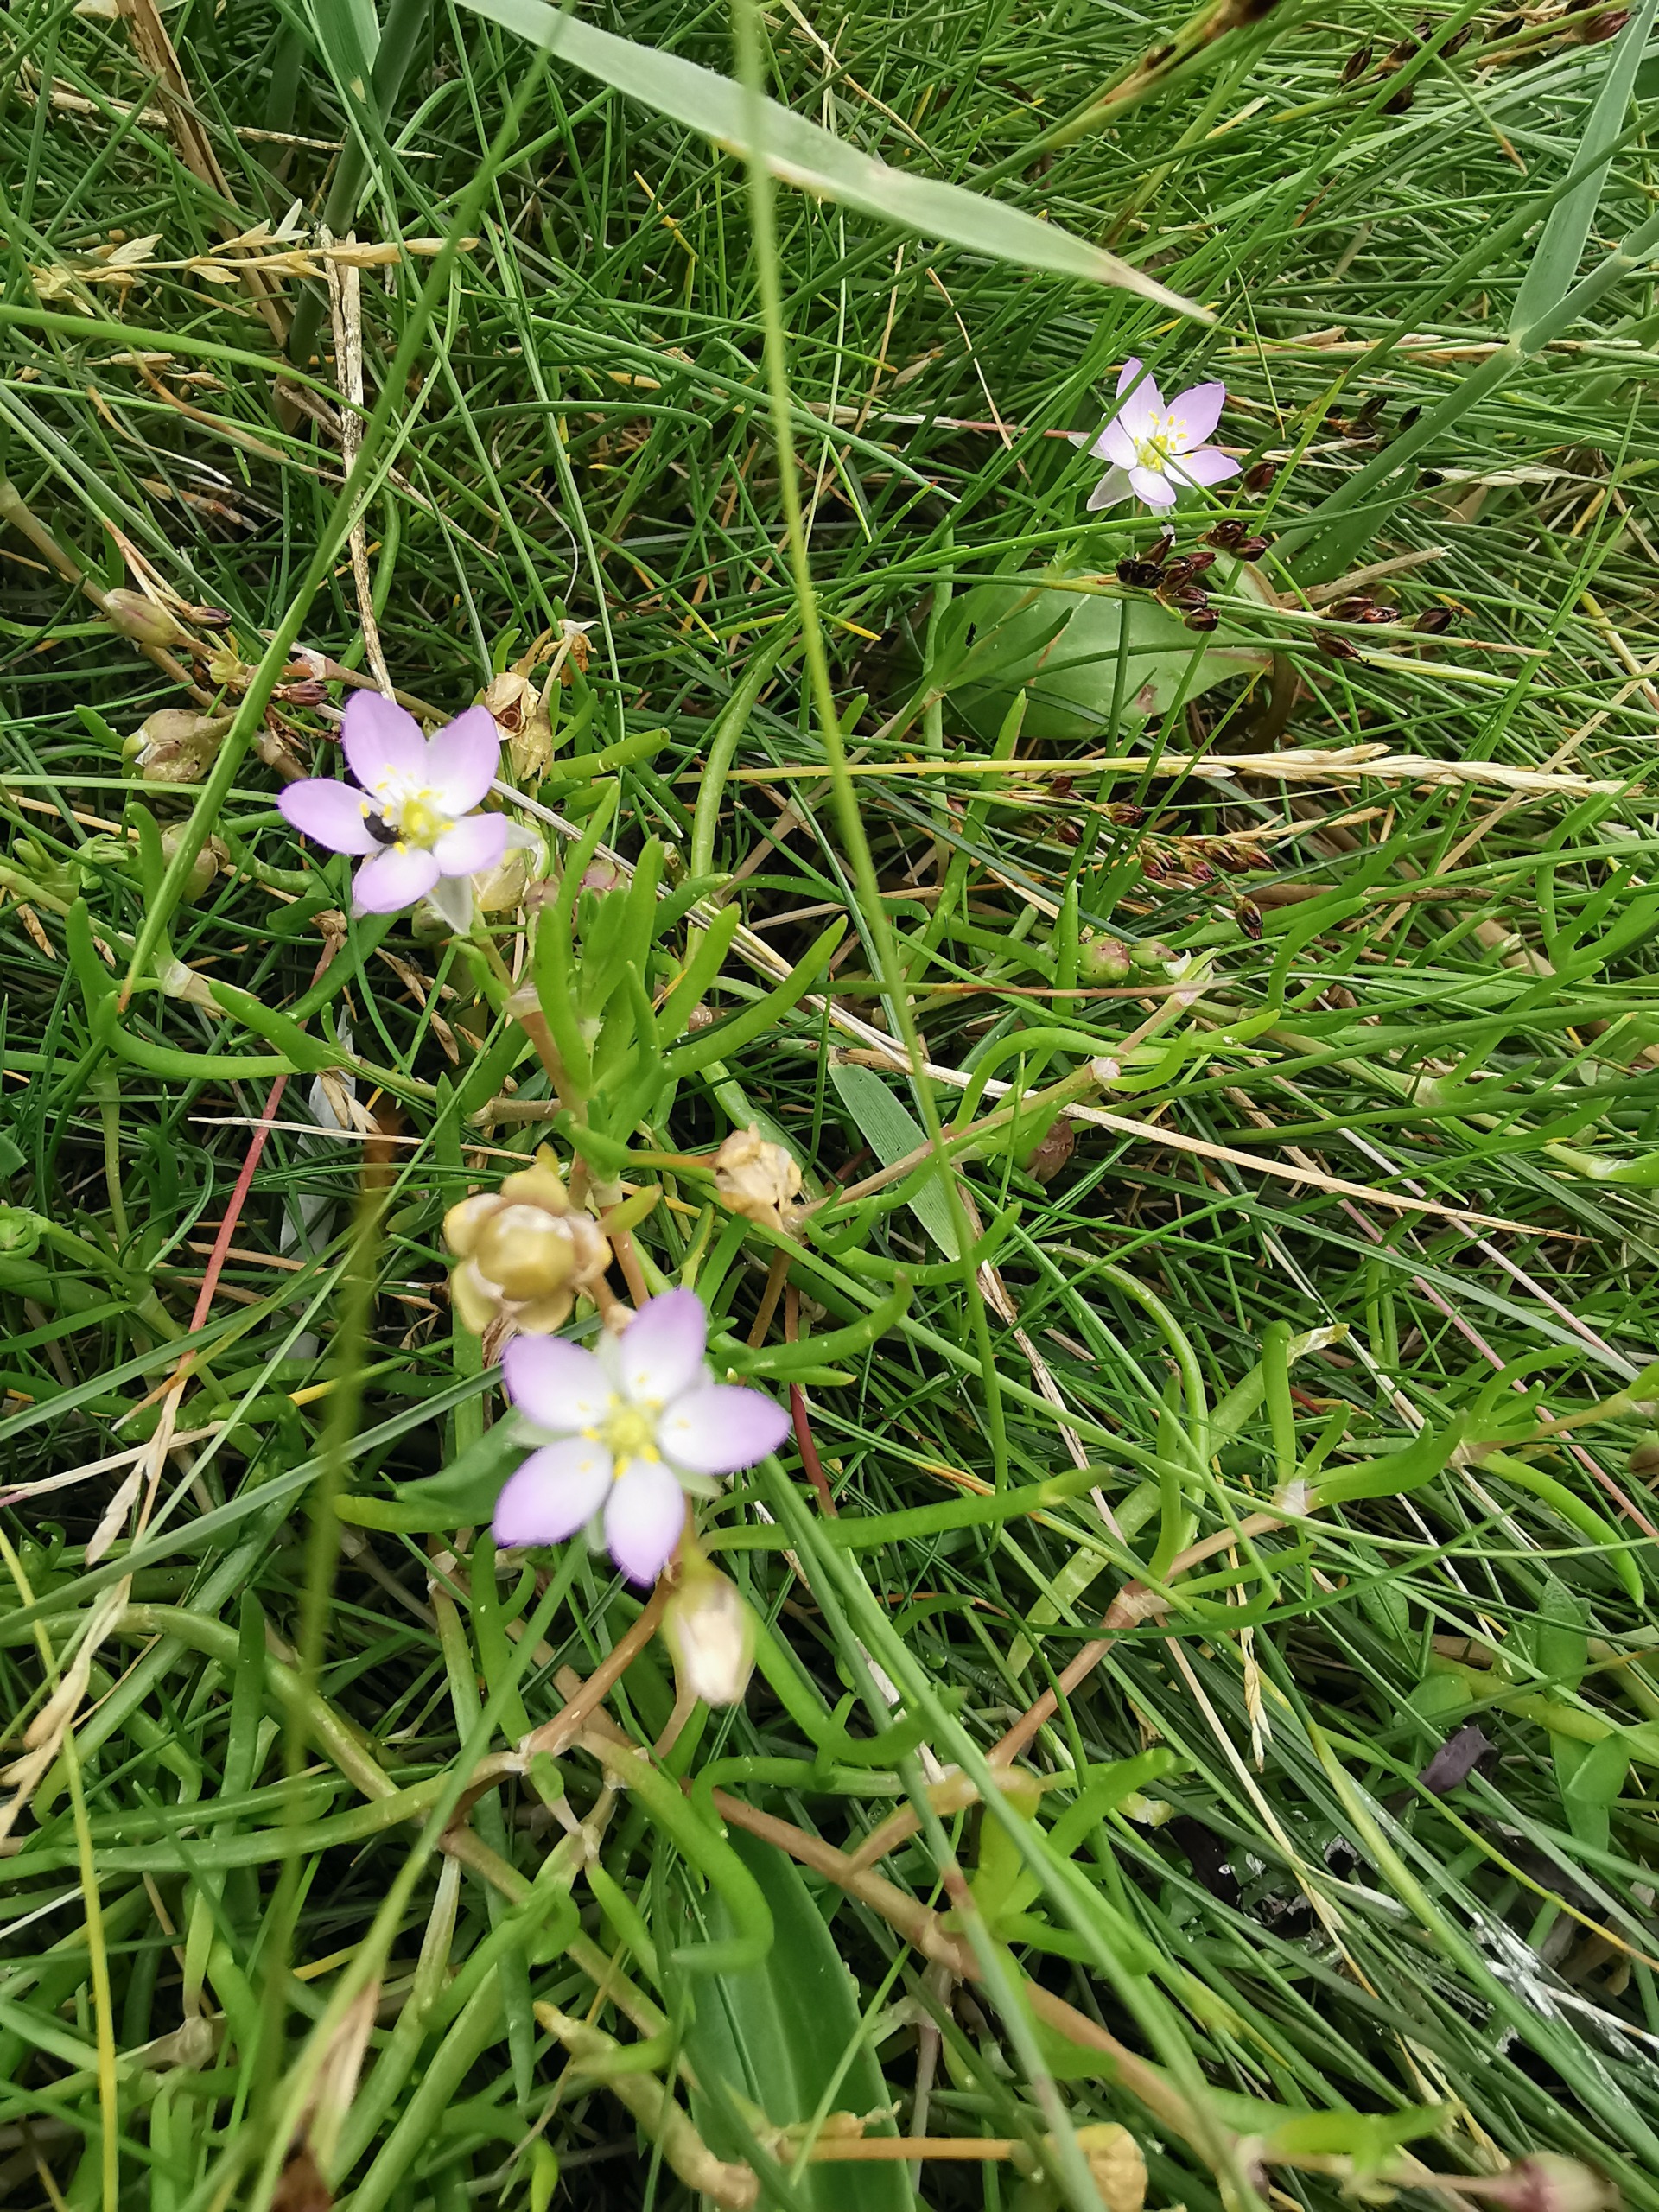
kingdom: Plantae
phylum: Tracheophyta
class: Magnoliopsida
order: Caryophyllales
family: Caryophyllaceae
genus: Spergularia
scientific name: Spergularia media
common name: Vingefrøet hindeknæ
